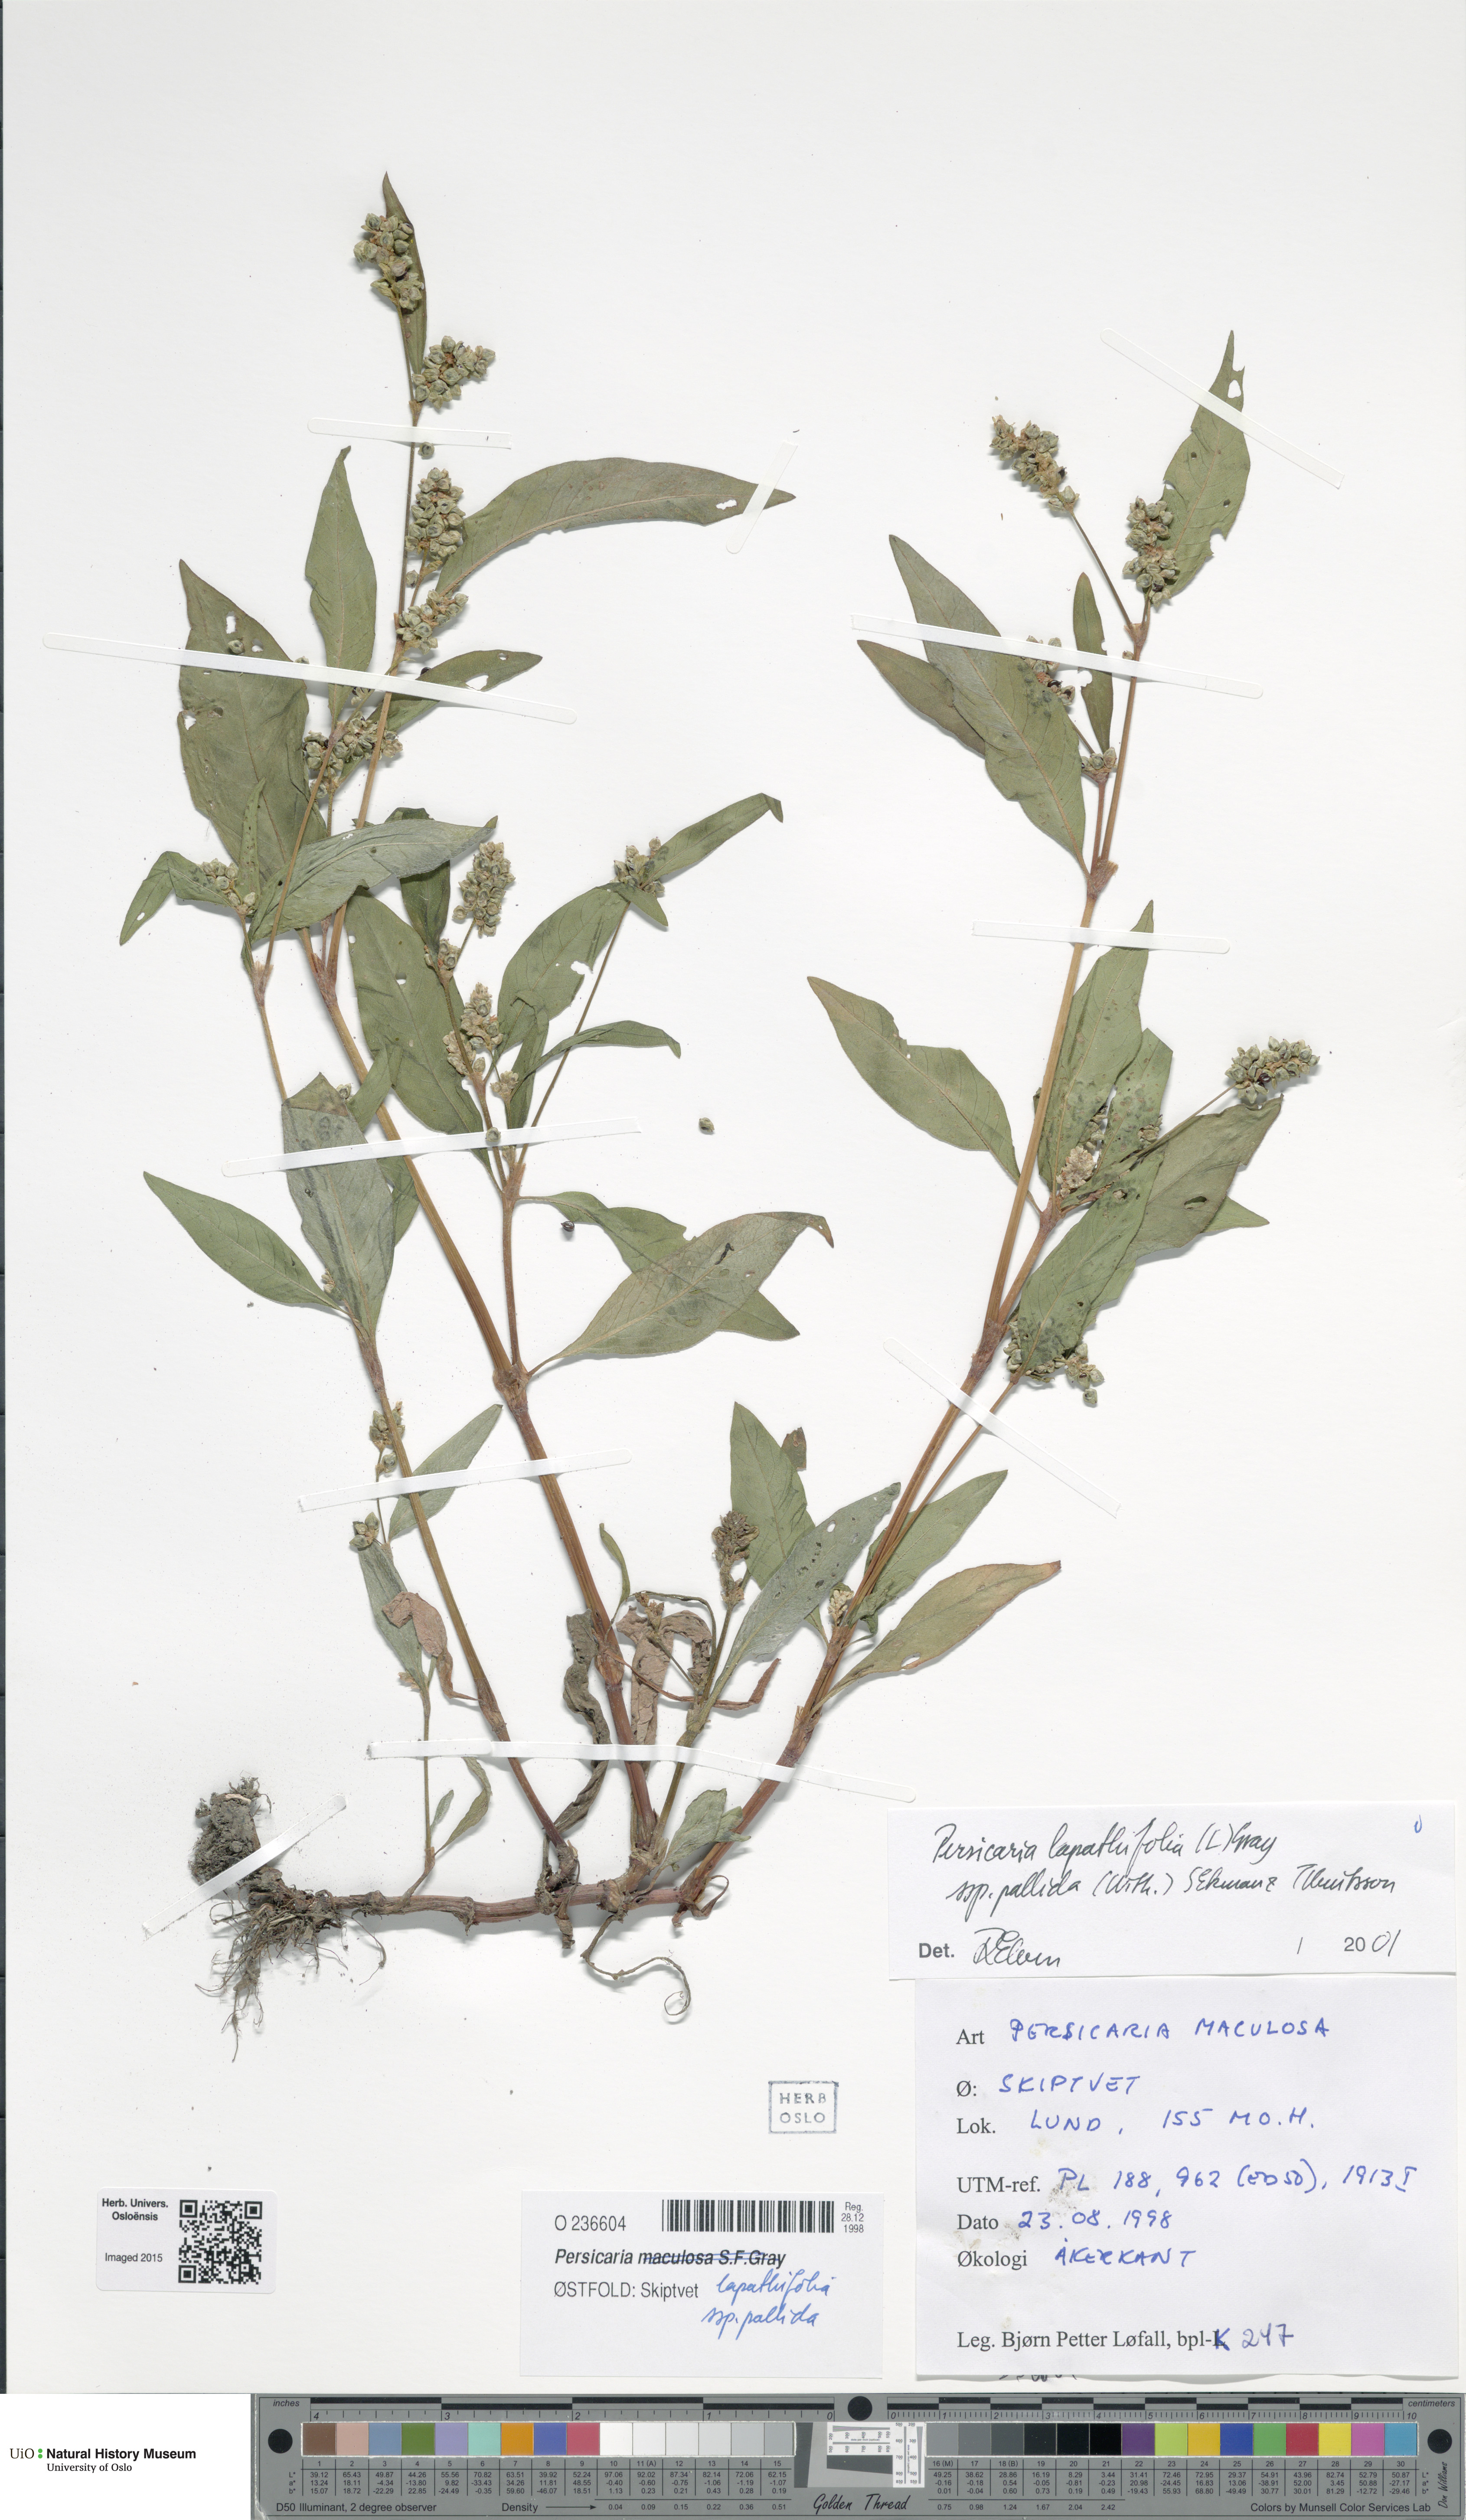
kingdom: Plantae
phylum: Tracheophyta
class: Magnoliopsida
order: Caryophyllales
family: Polygonaceae
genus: Persicaria
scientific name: Persicaria lapathifolia
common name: Curlytop knotweed
